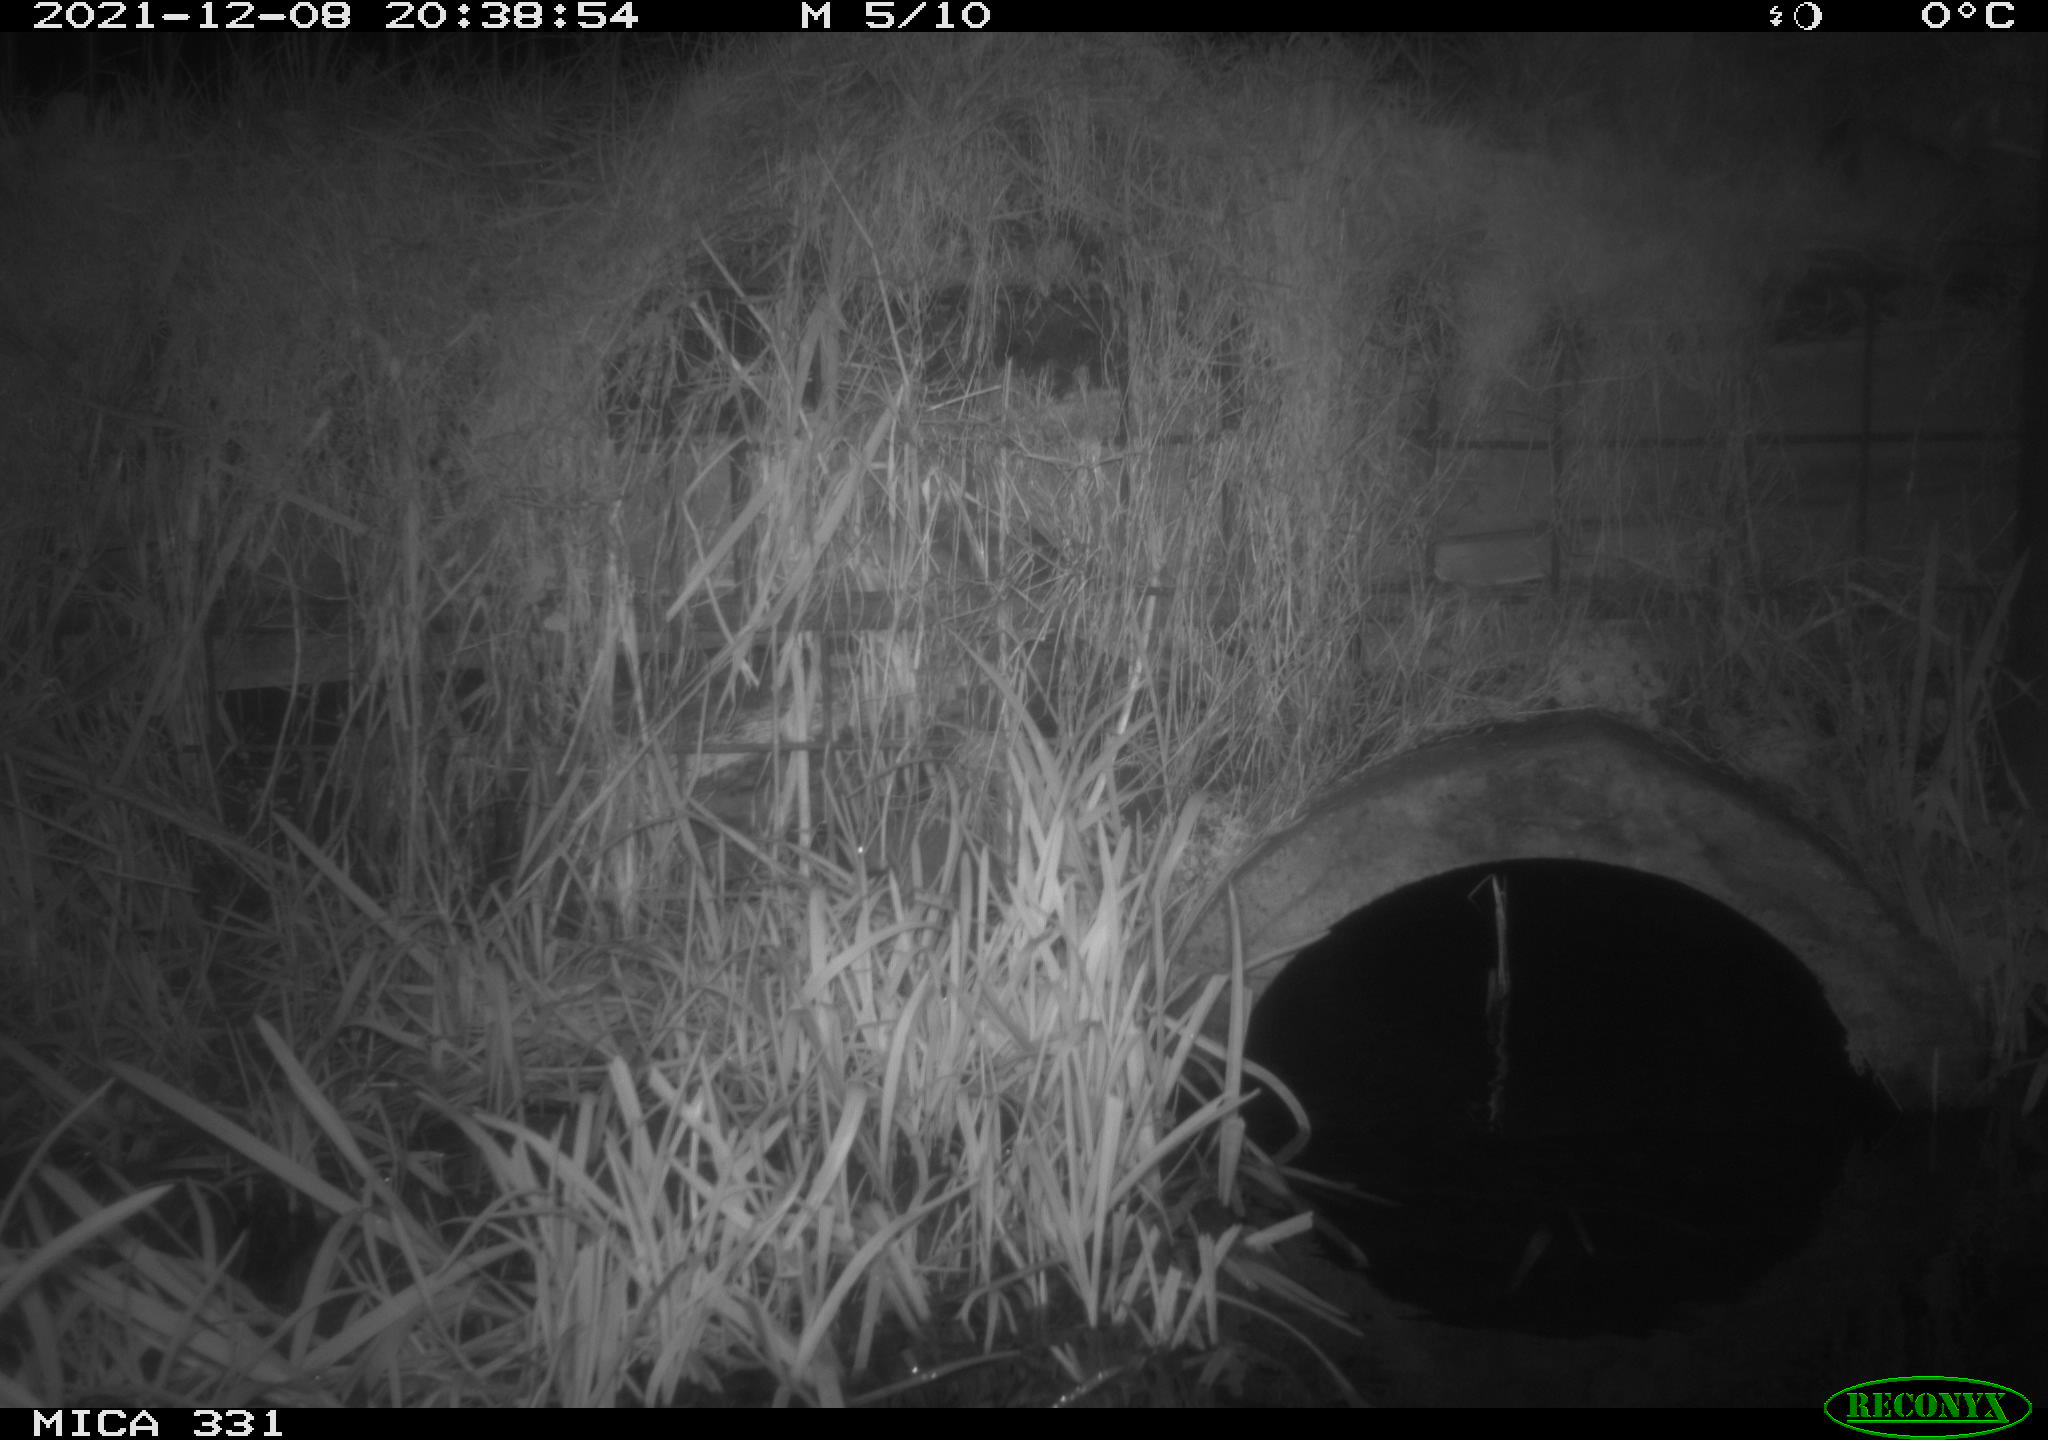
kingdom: Animalia
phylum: Chordata
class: Mammalia
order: Rodentia
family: Muridae
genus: Rattus
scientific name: Rattus norvegicus
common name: Brown rat
